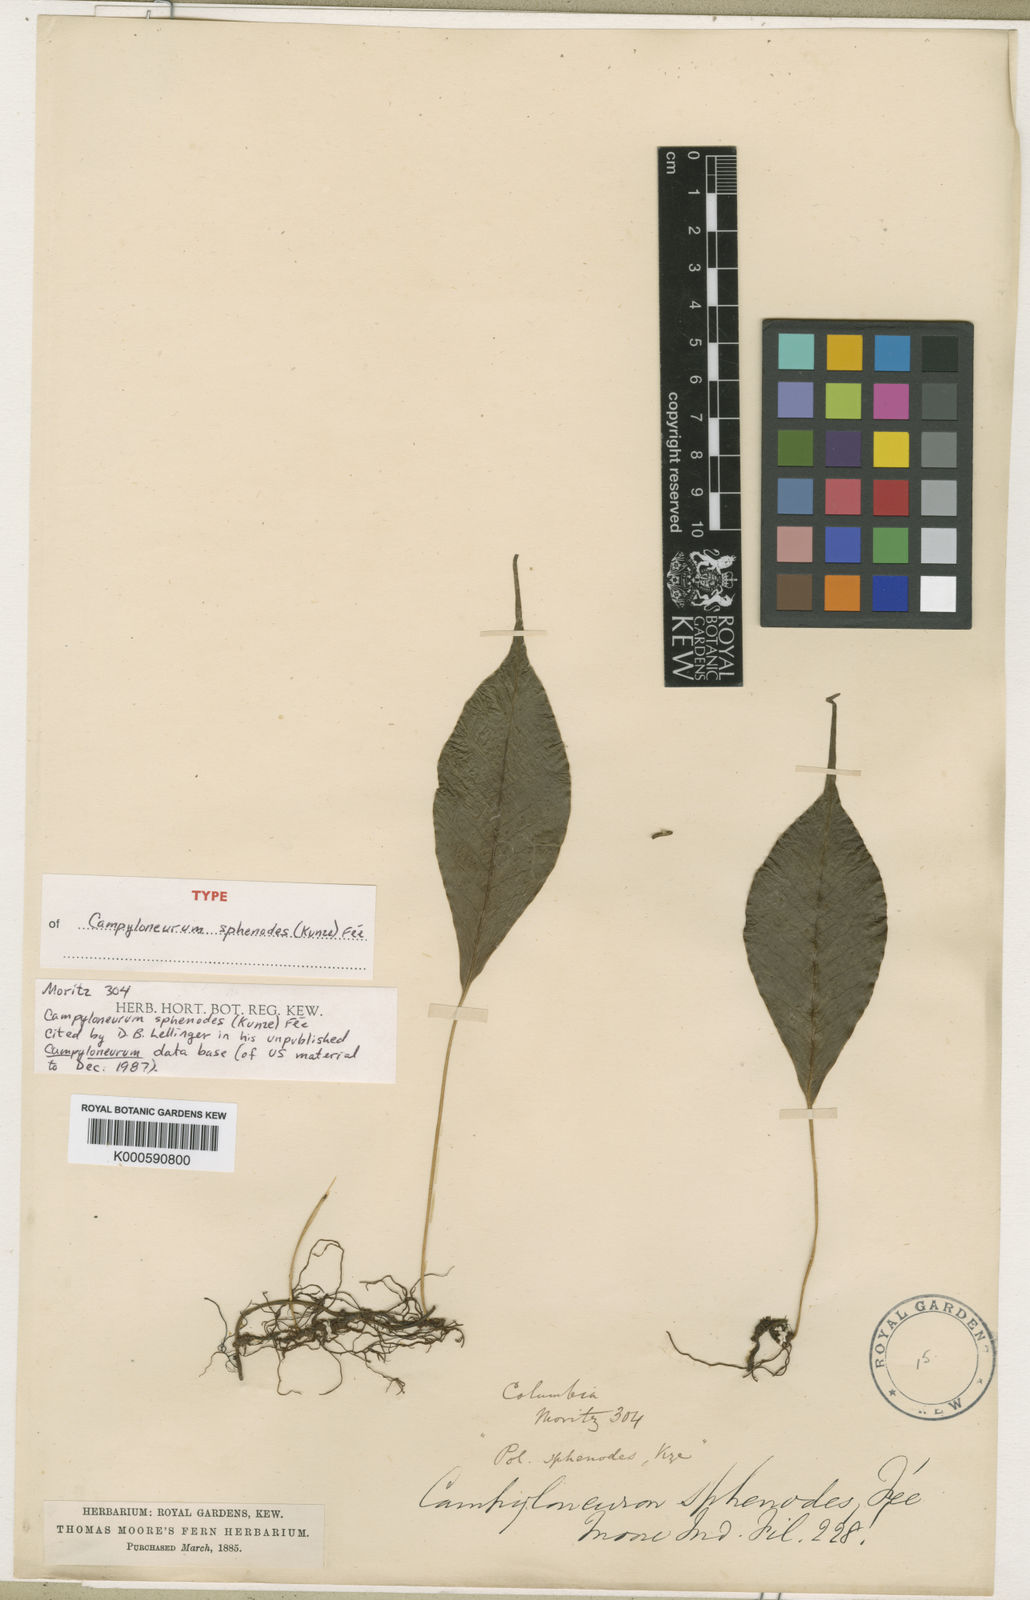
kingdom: Plantae
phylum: Tracheophyta
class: Polypodiopsida
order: Polypodiales
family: Polypodiaceae
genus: Campyloneurum
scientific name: Campyloneurum
